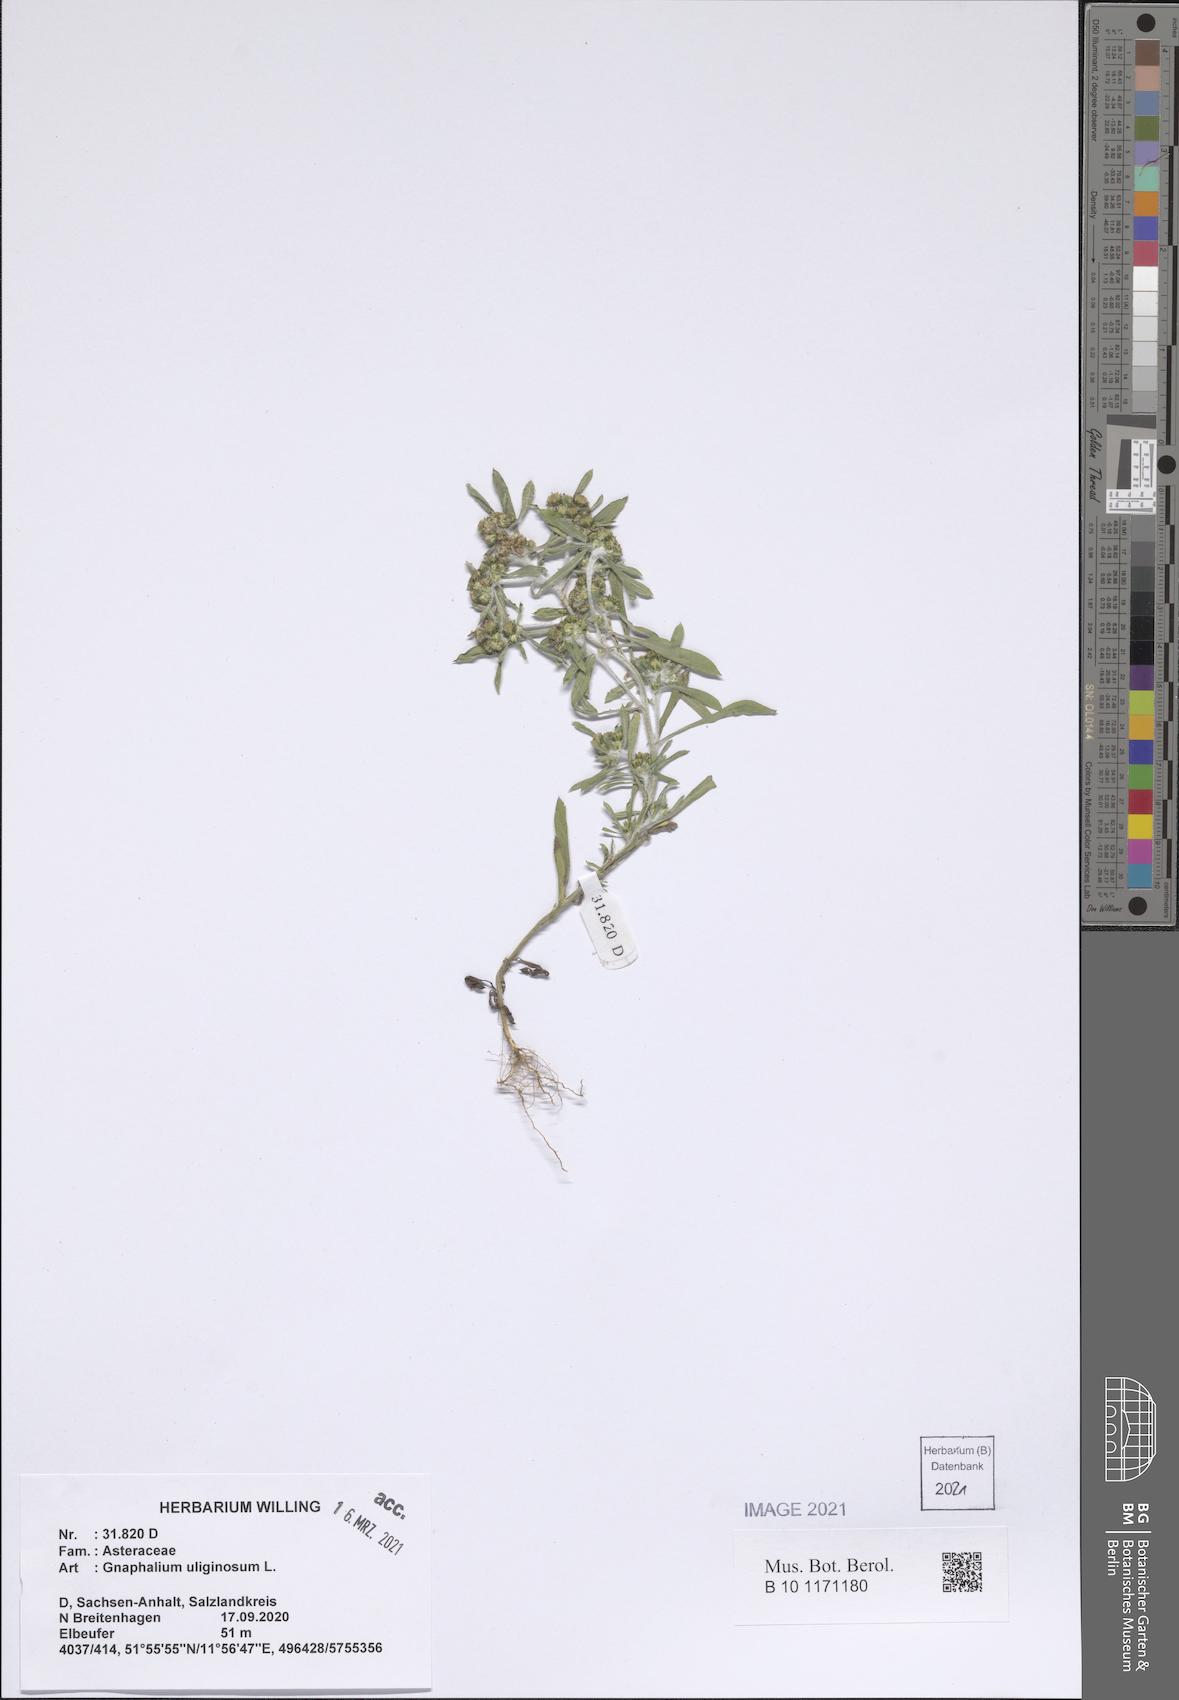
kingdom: Plantae
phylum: Tracheophyta
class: Magnoliopsida
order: Asterales
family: Asteraceae
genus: Gnaphalium
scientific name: Gnaphalium uliginosum
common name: Marsh cudweed
